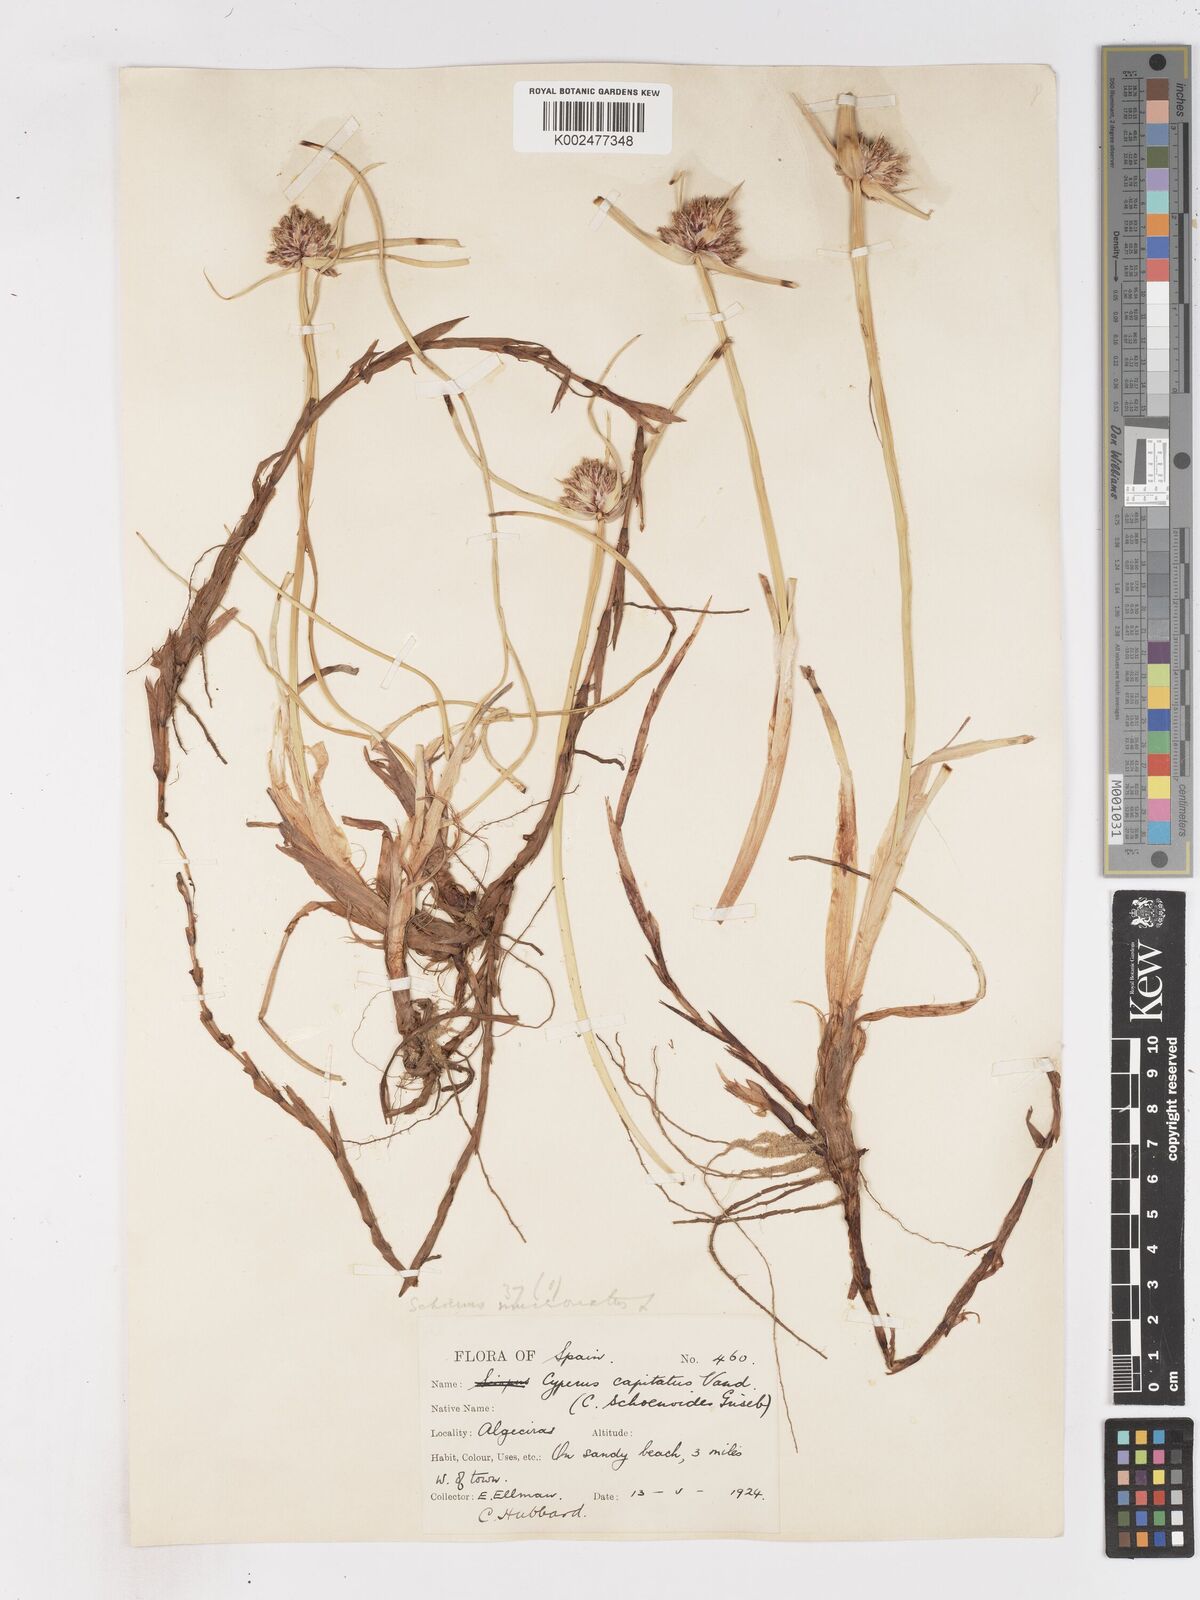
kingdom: Plantae
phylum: Tracheophyta
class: Liliopsida
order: Poales
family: Cyperaceae
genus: Cyperus
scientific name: Cyperus capitatus
